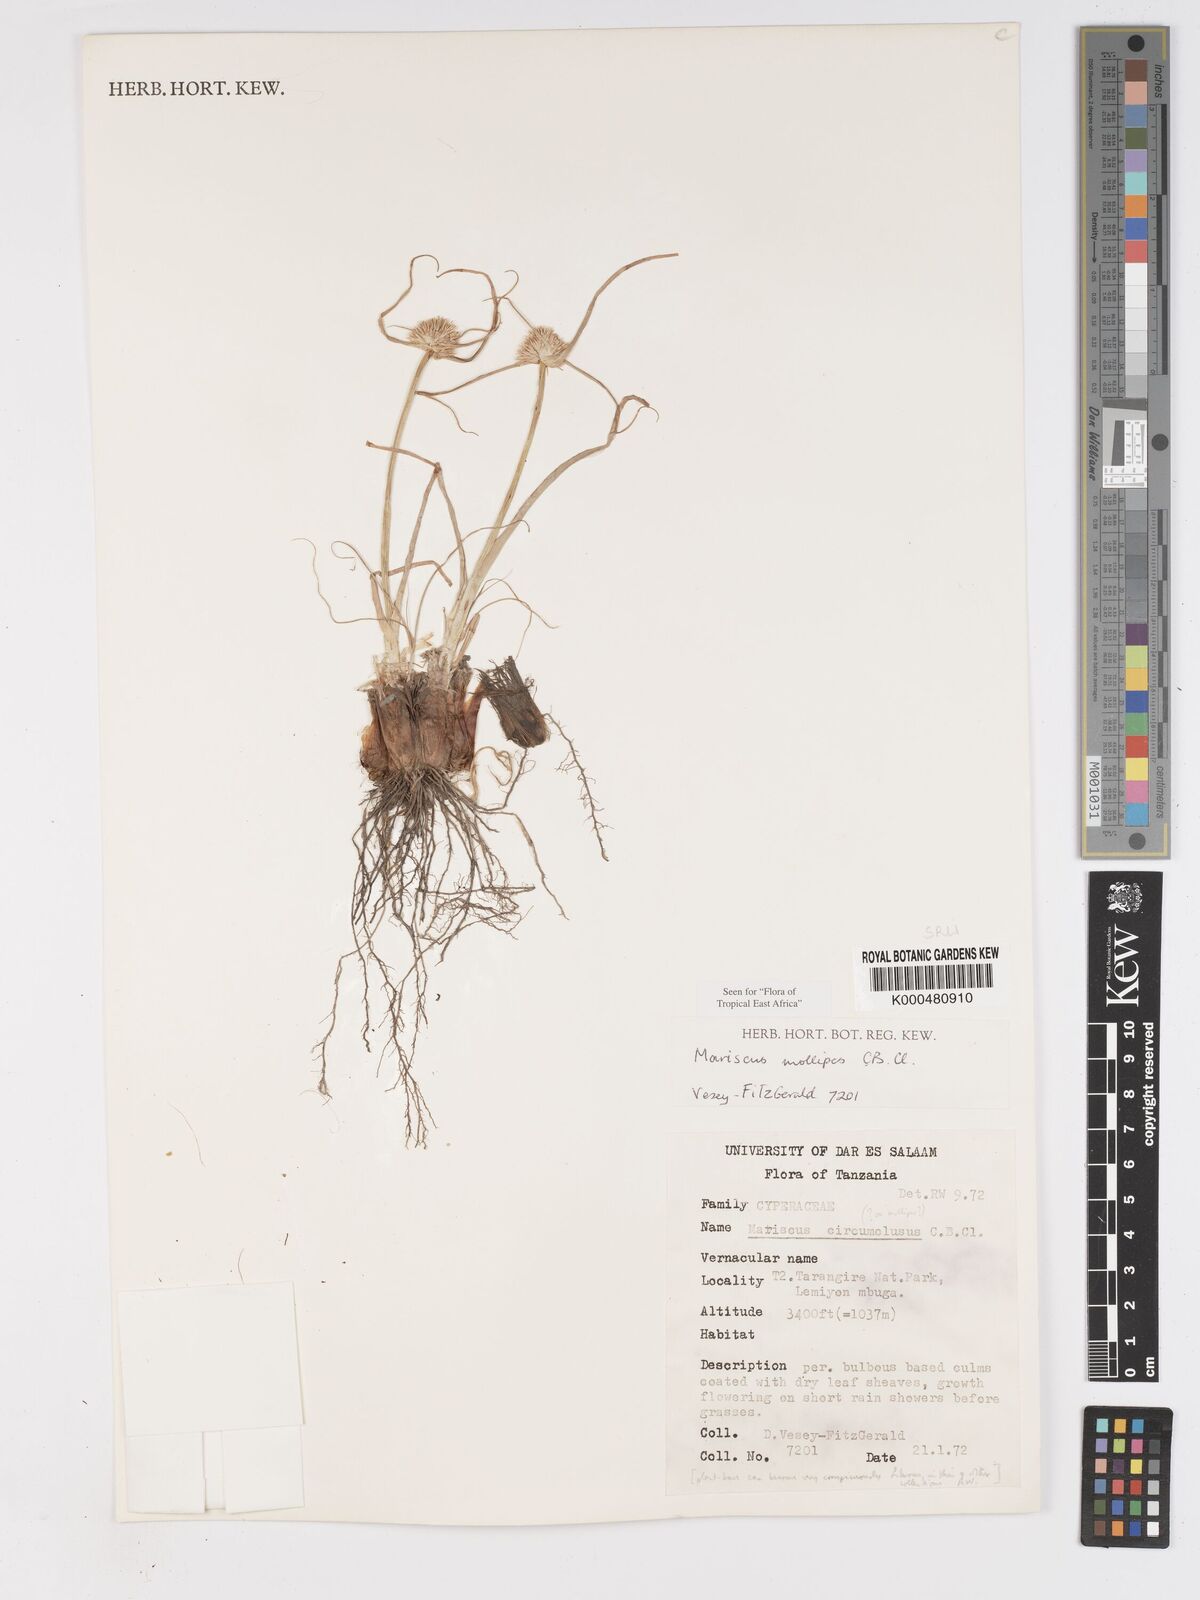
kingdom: Plantae
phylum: Tracheophyta
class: Liliopsida
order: Poales
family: Cyperaceae
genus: Cyperus
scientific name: Cyperus mollipes
